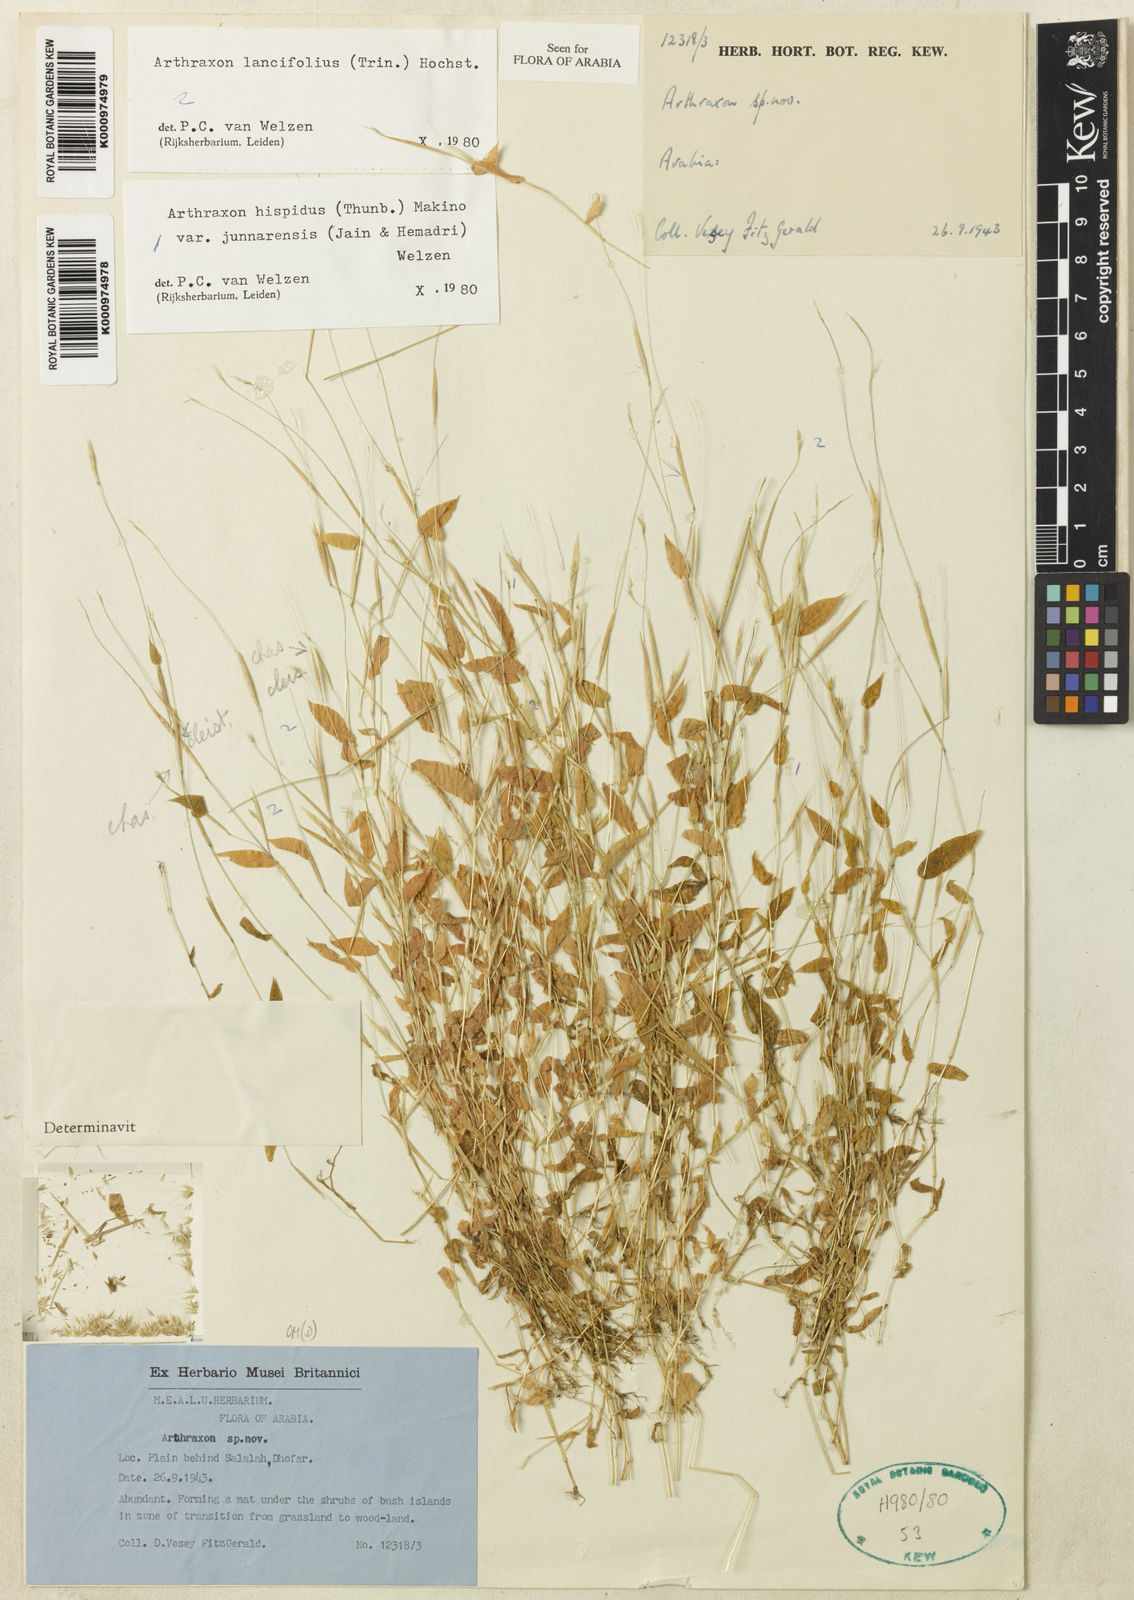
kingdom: Plantae
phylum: Tracheophyta
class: Liliopsida
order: Poales
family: Poaceae
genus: Arthraxon
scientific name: Arthraxon lancifolius
